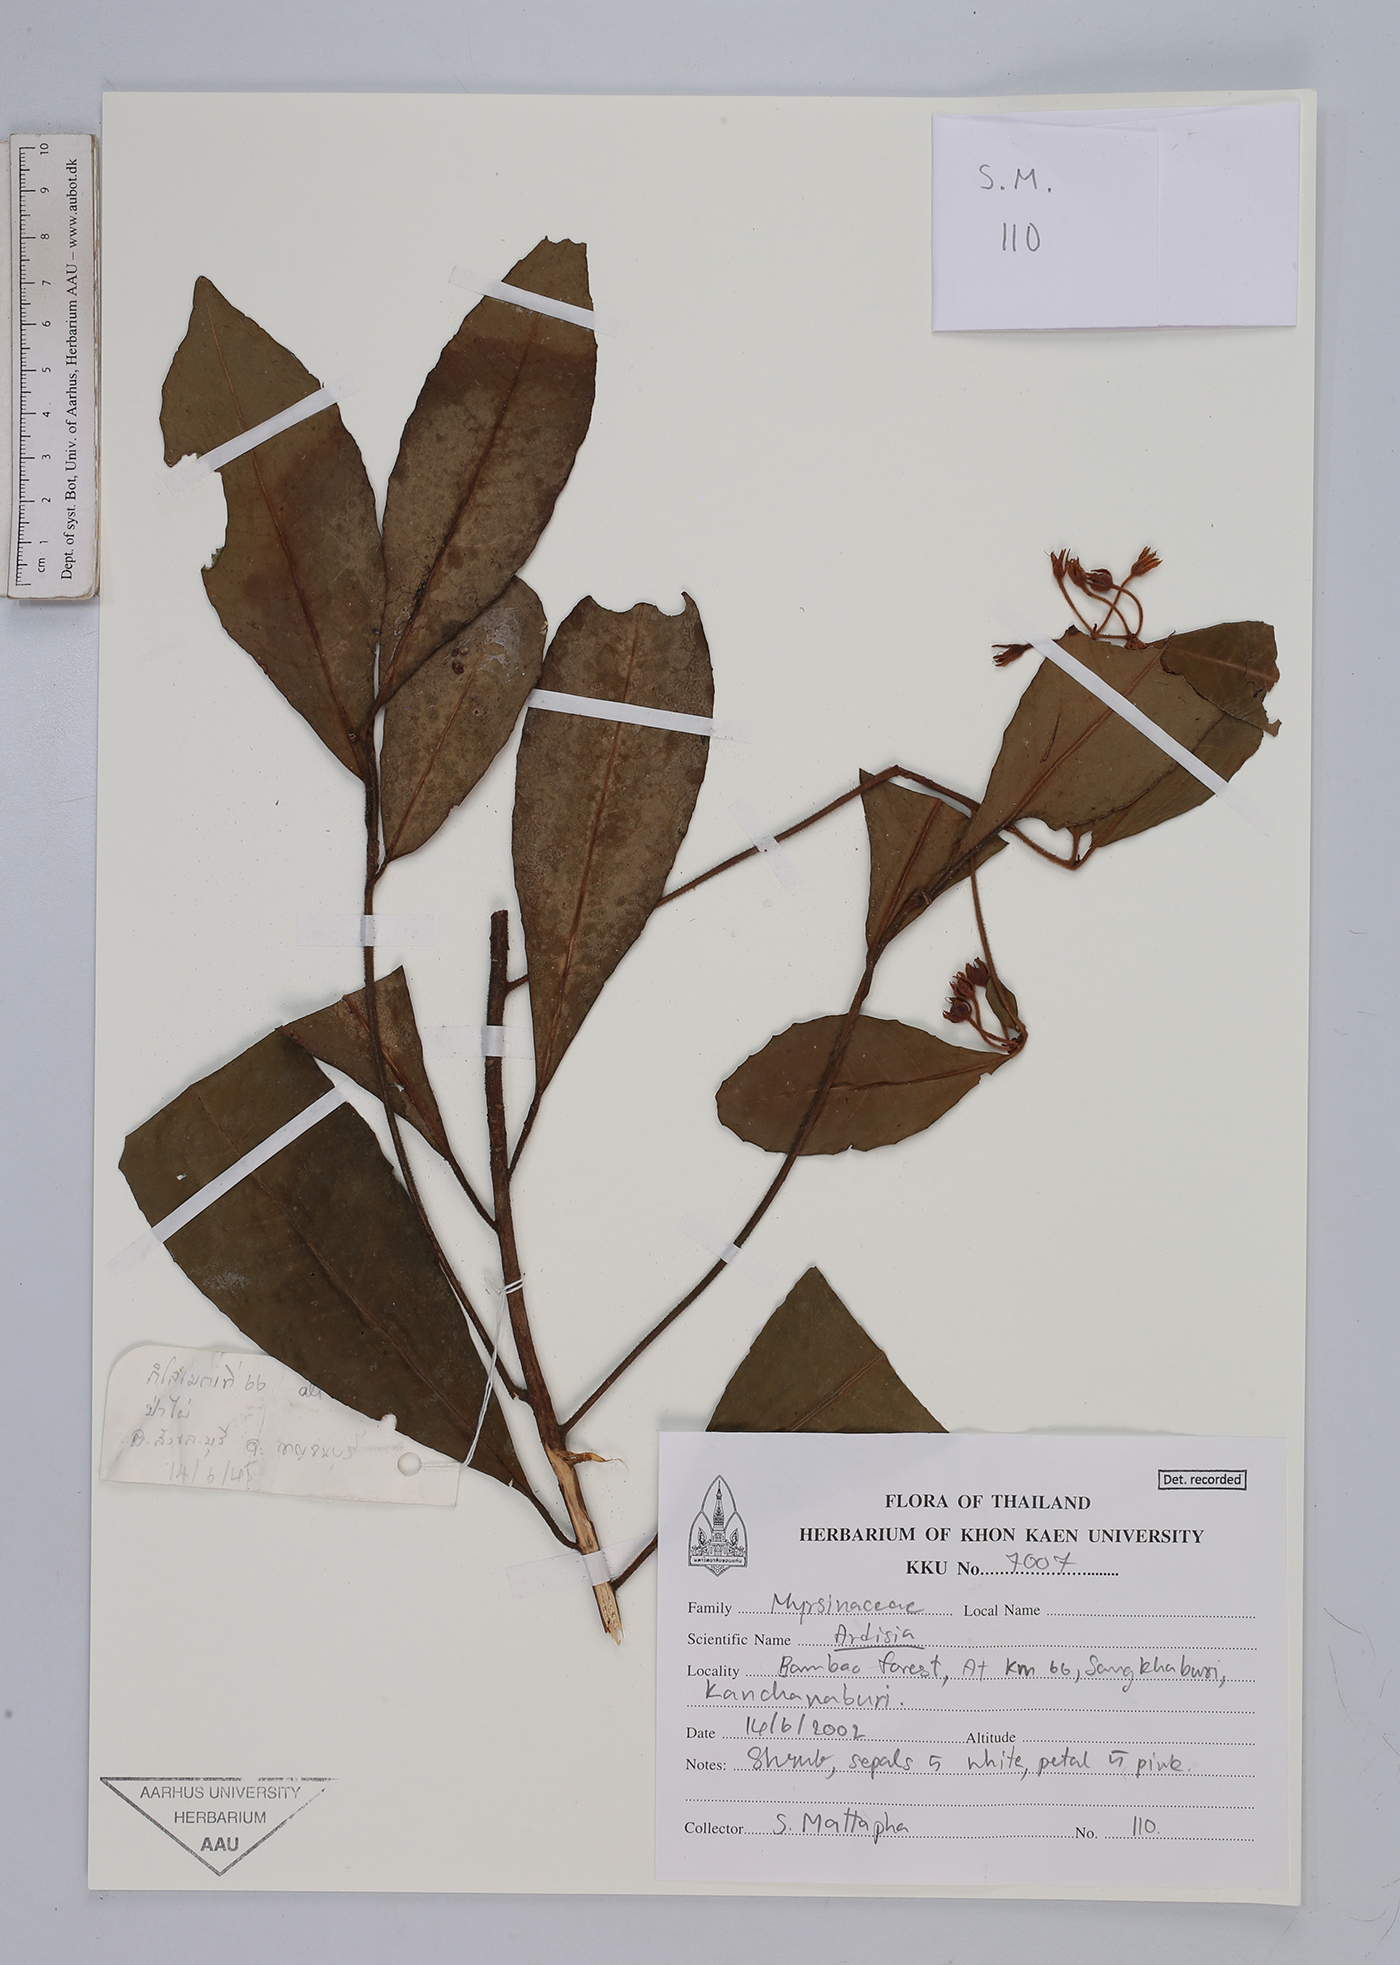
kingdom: Plantae
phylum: Tracheophyta
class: Magnoliopsida
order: Ericales
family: Primulaceae
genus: Ardisia
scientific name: Ardisia
